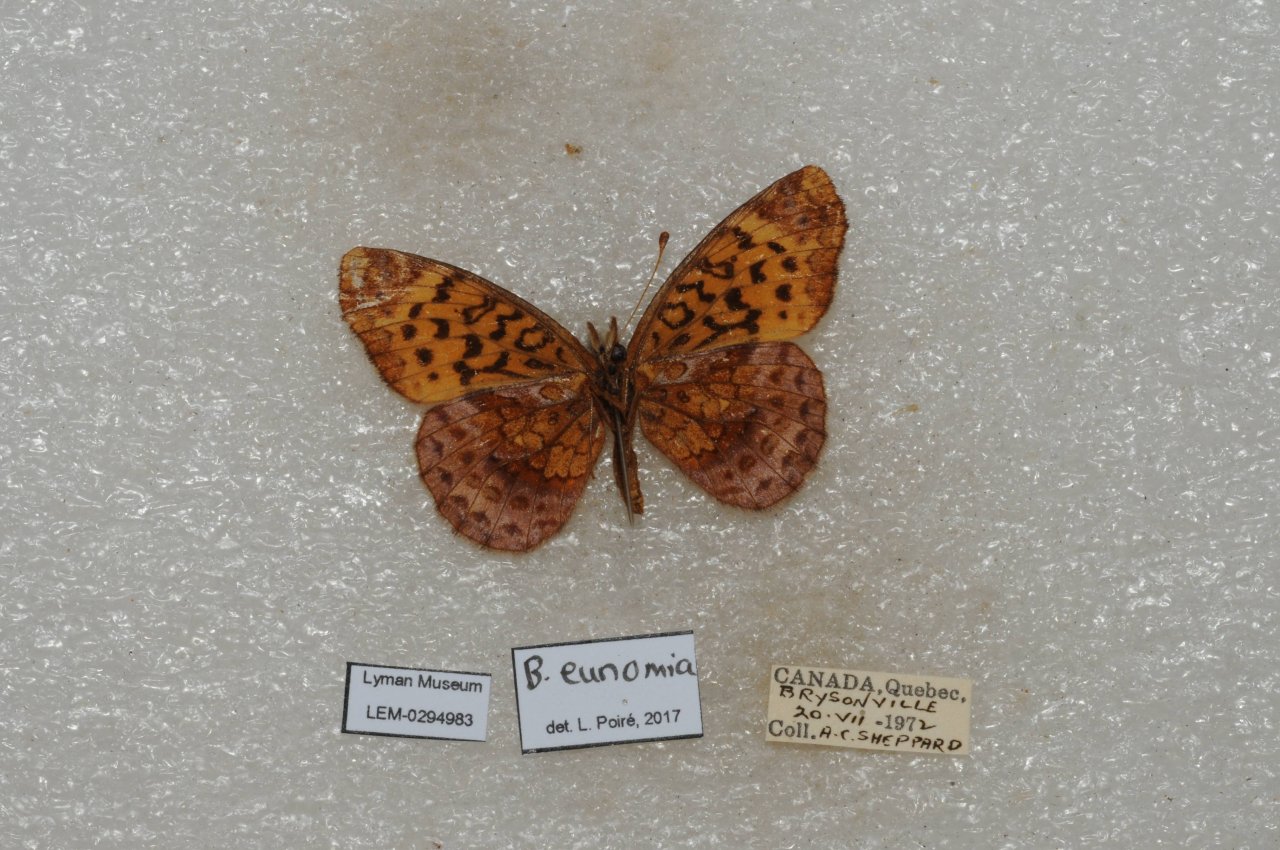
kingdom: Animalia
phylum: Arthropoda
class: Insecta
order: Lepidoptera
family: Nymphalidae
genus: Clossiana
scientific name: Clossiana toddi
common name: Meadow Fritillary
